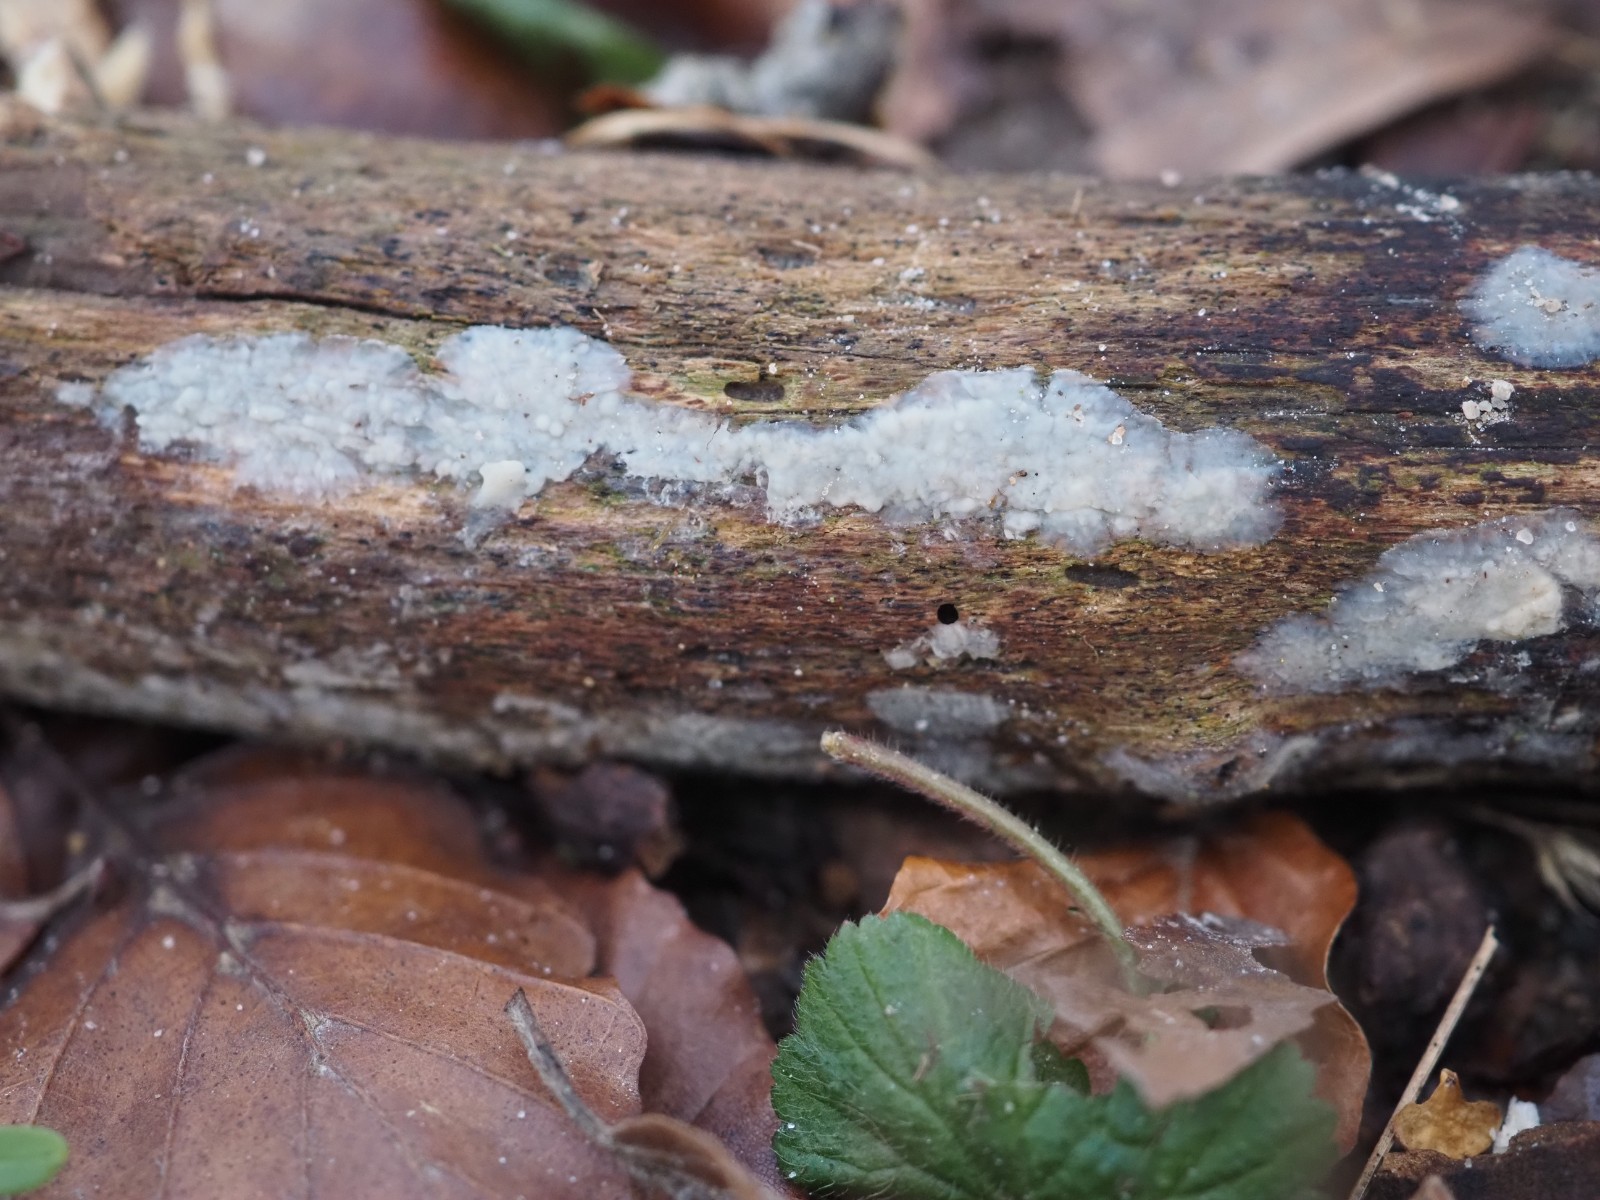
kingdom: Fungi
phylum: Basidiomycota
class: Agaricomycetes
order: Agaricales
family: Radulomycetaceae
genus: Radulomyces
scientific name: Radulomyces confluens
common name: glat naftalinskind
